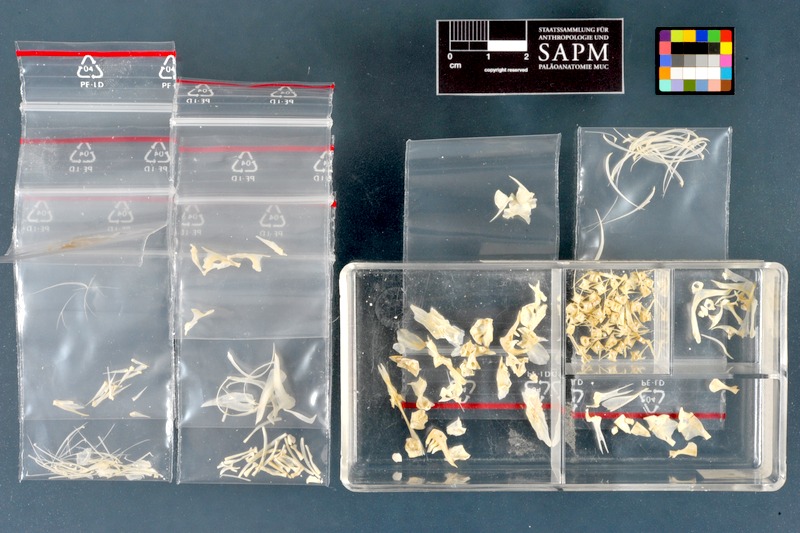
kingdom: Animalia
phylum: Chordata
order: Cypriniformes
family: Cyprinidae
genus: Oreoleuciscus
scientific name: Oreoleuciscus potanini
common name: Altai osman
